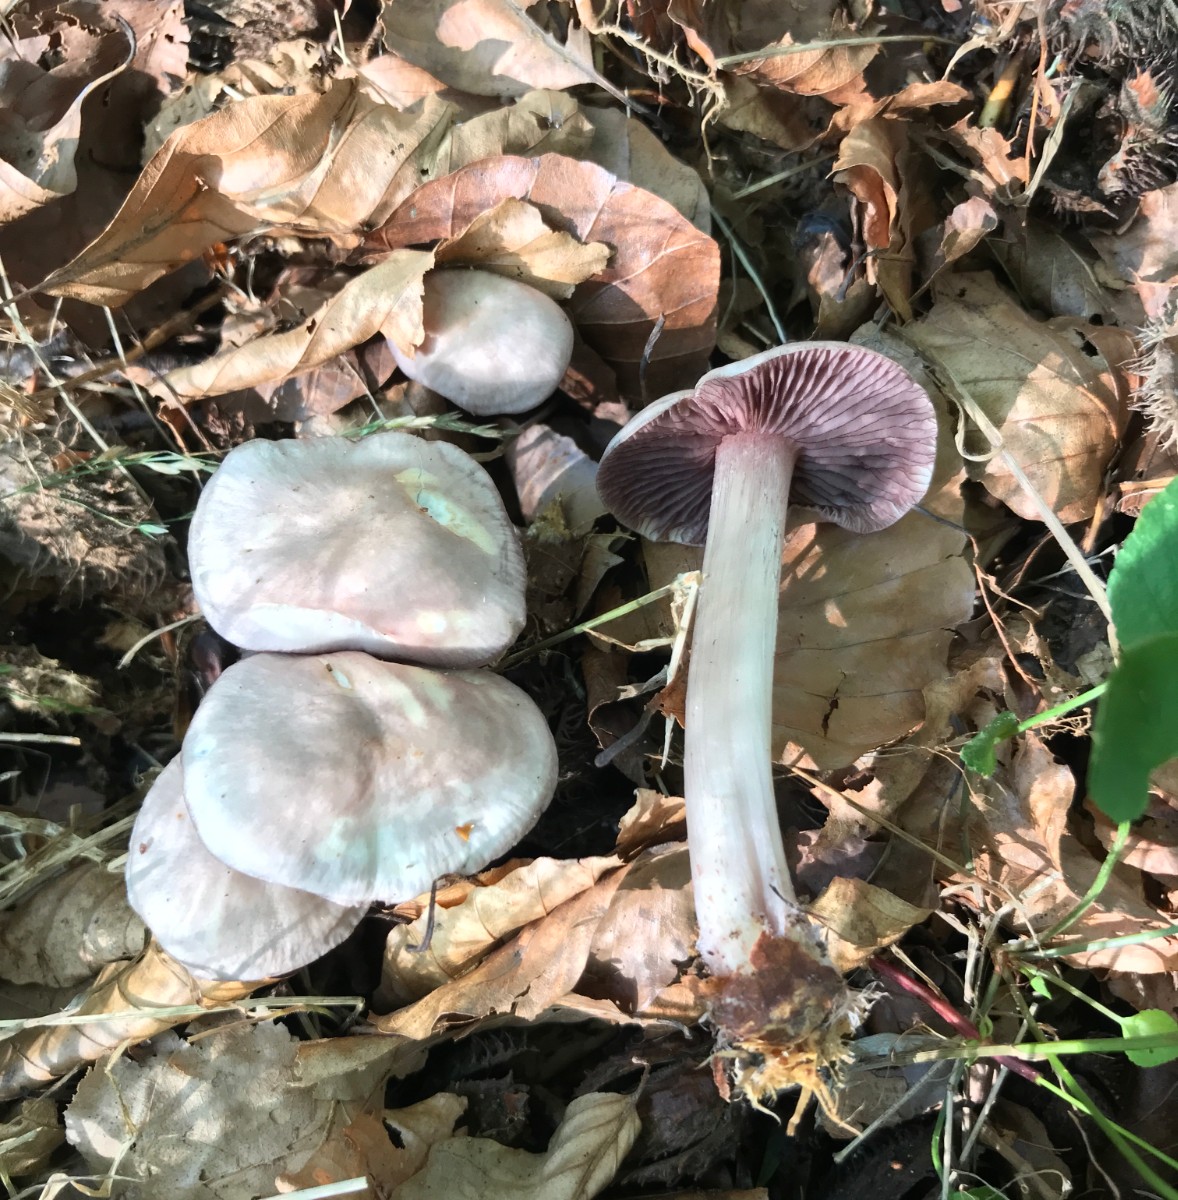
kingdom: Fungi
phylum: Basidiomycota
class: Agaricomycetes
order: Agaricales
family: Tricholomataceae
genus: Lepista
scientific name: Lepista nuda
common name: violet hekseringshat
